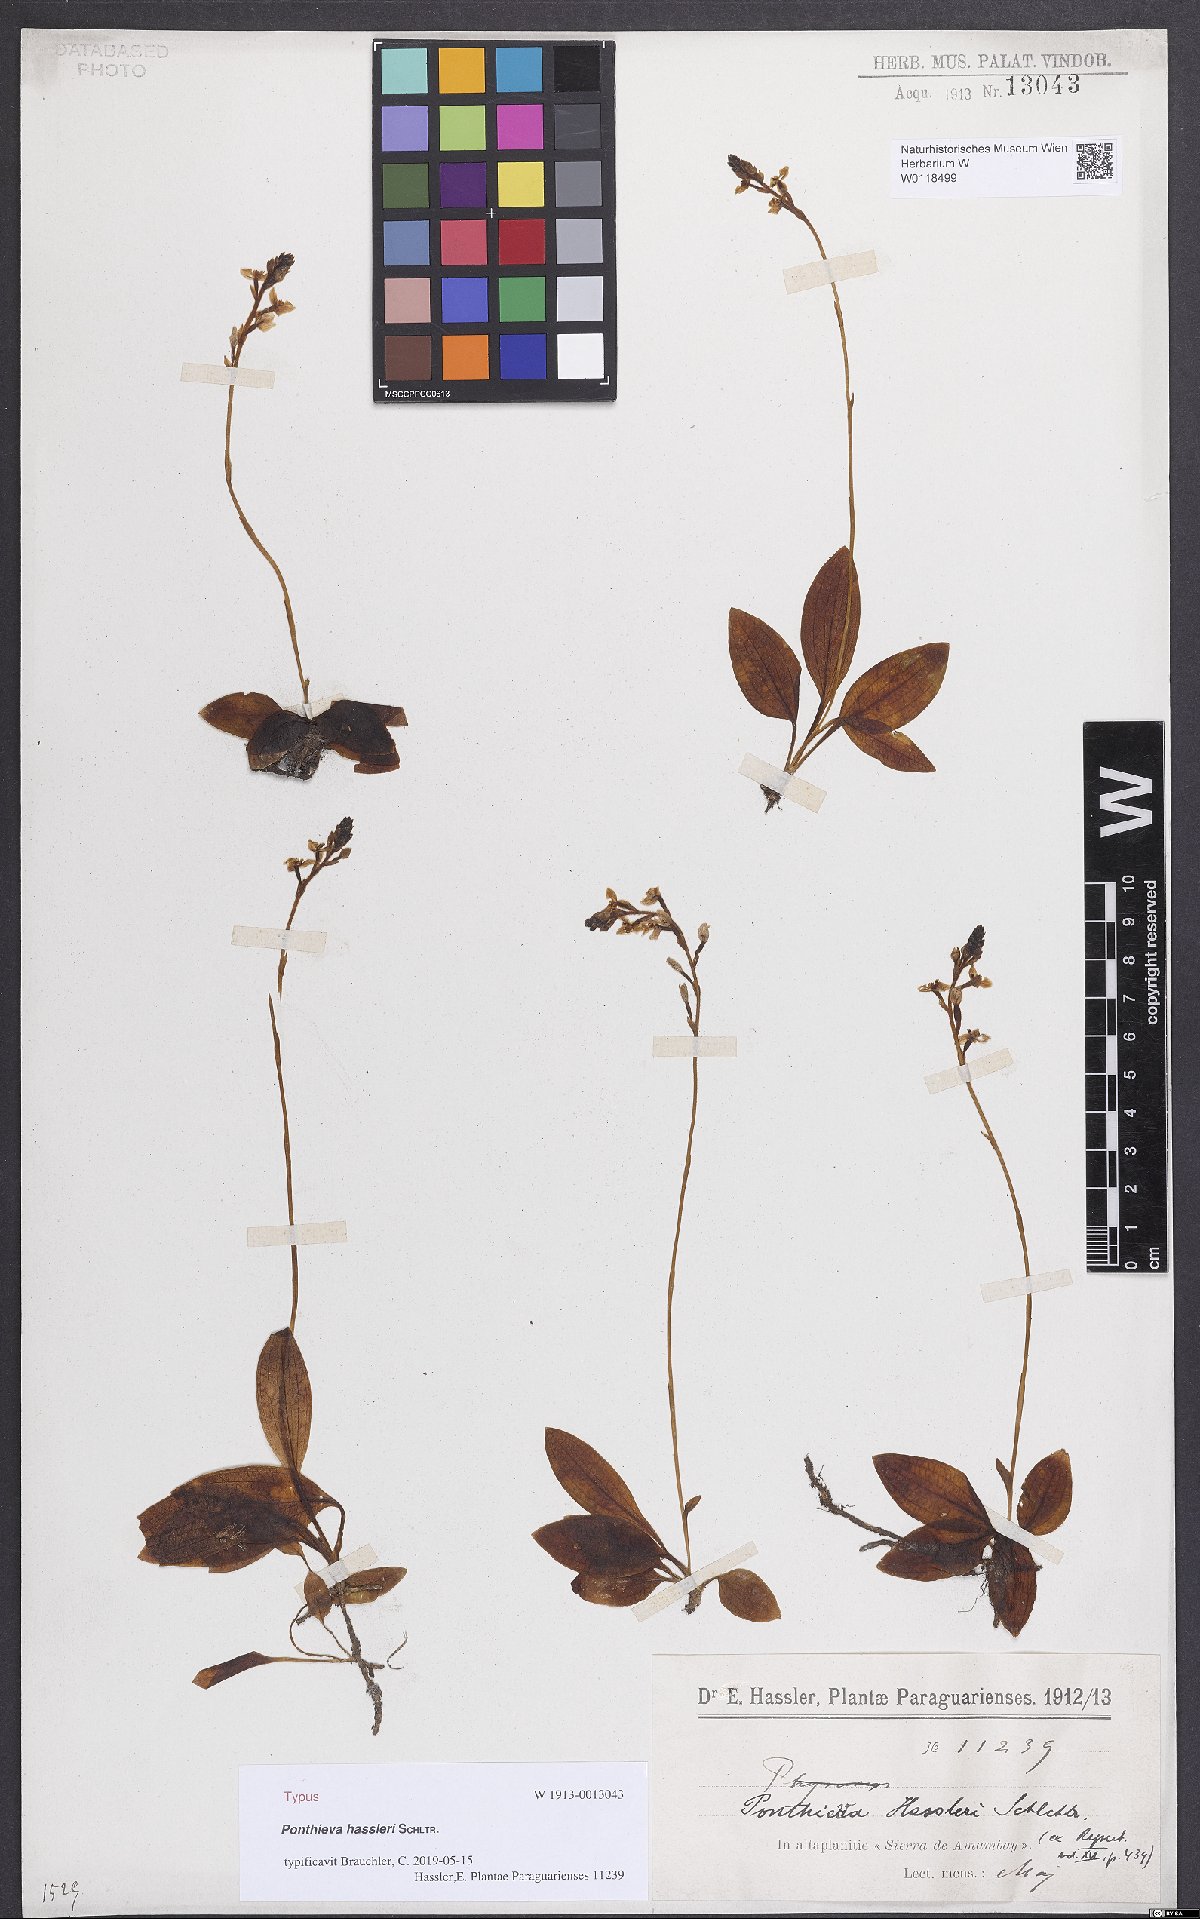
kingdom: Plantae
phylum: Tracheophyta
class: Liliopsida
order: Asparagales
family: Orchidaceae
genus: Ponthieva
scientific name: Ponthieva hassleri
